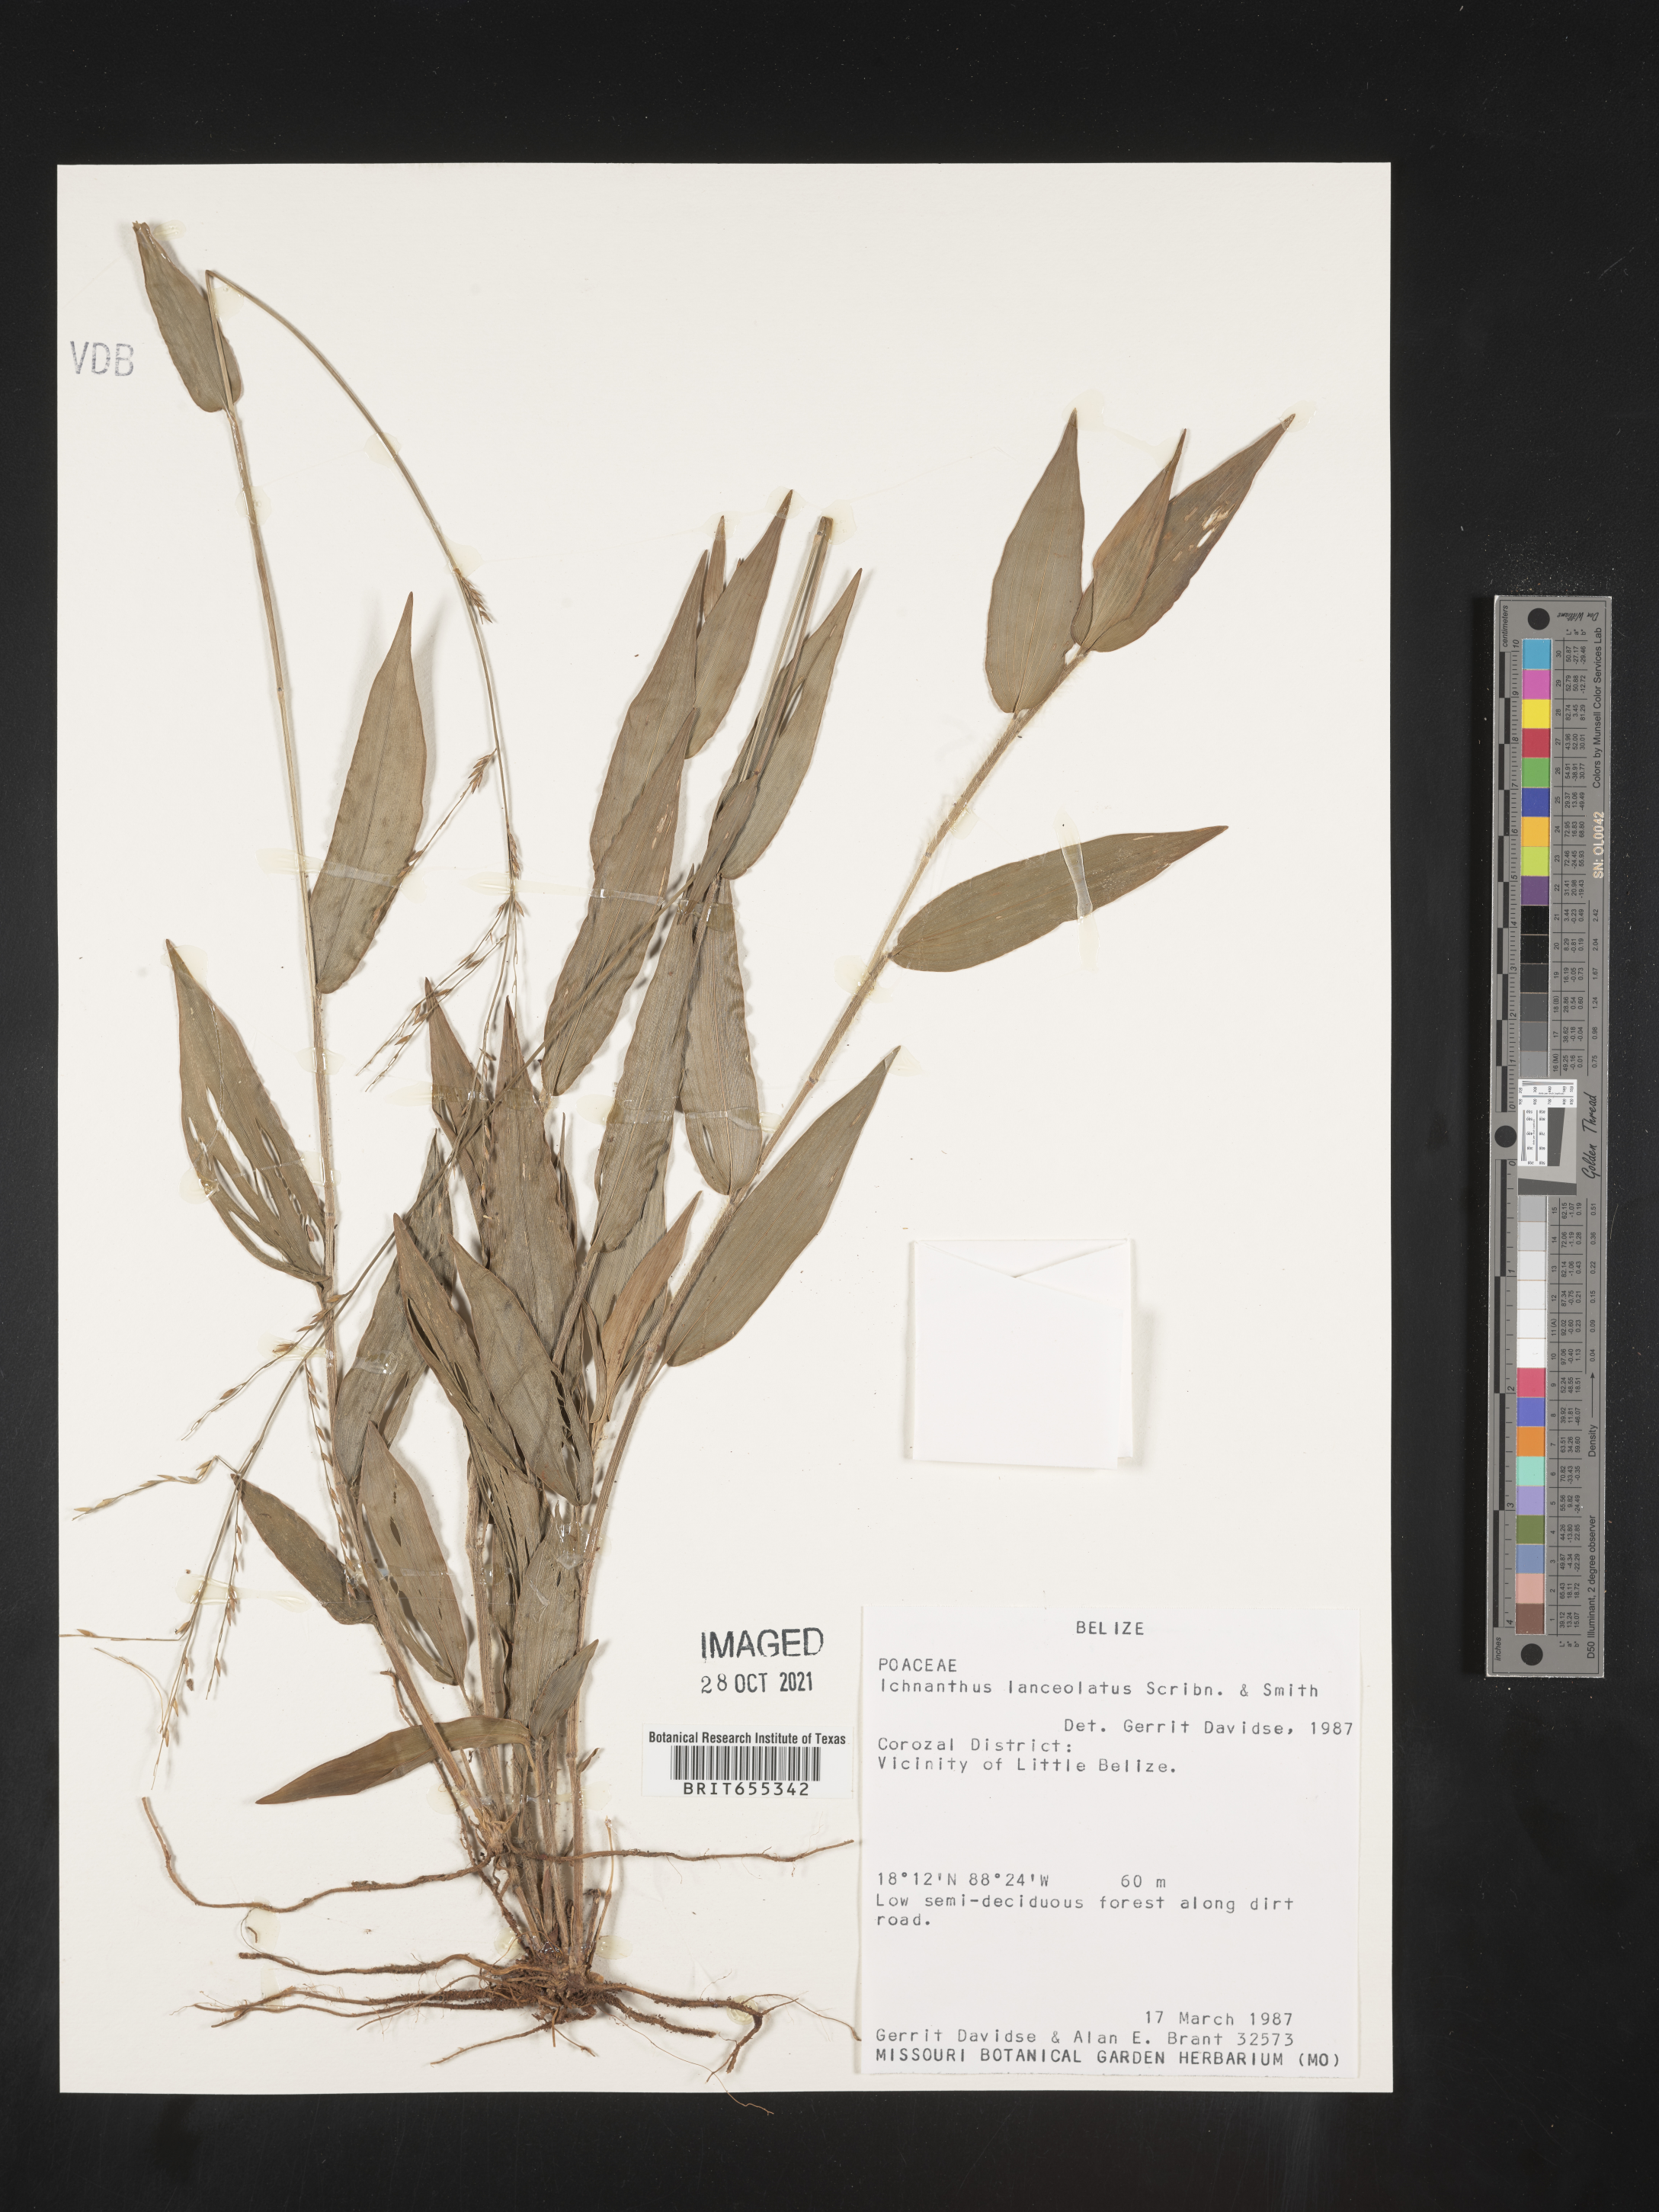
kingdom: Plantae
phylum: Tracheophyta
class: Liliopsida
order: Poales
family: Poaceae
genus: Ichnanthus
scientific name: Ichnanthus
